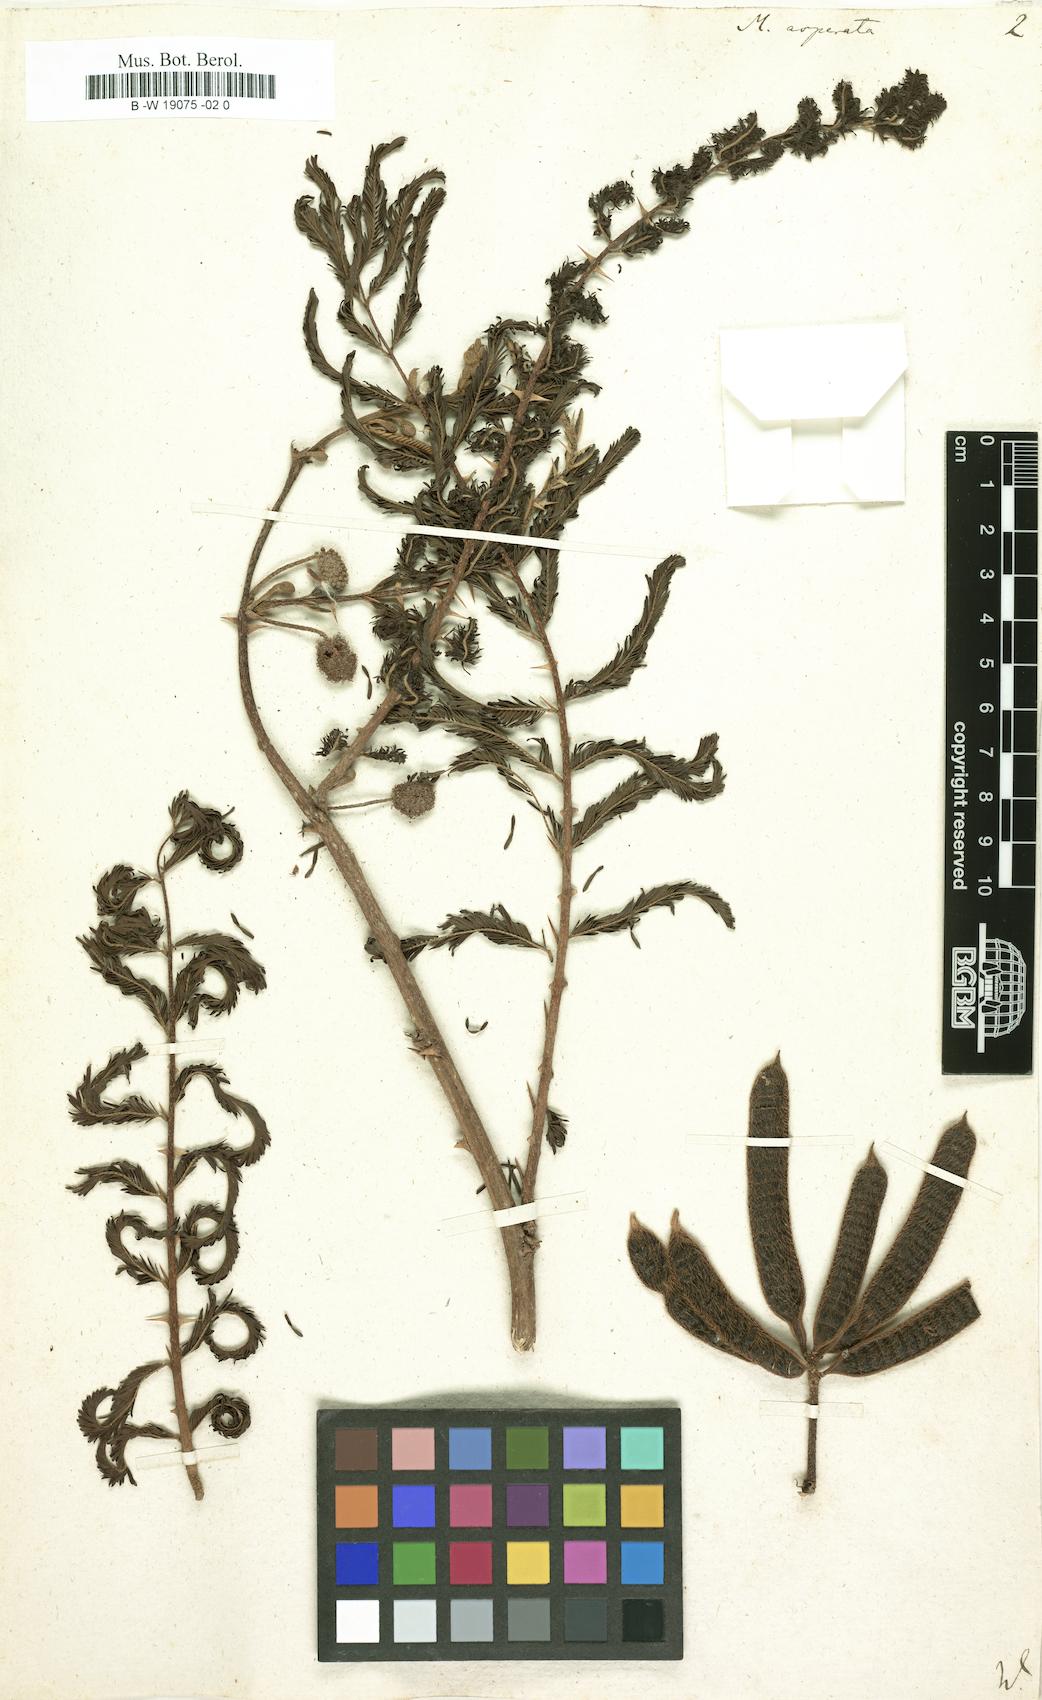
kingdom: Plantae
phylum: Tracheophyta
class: Magnoliopsida
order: Fabales
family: Fabaceae
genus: Mimosa
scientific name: Mimosa pigra
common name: Black mimosa
